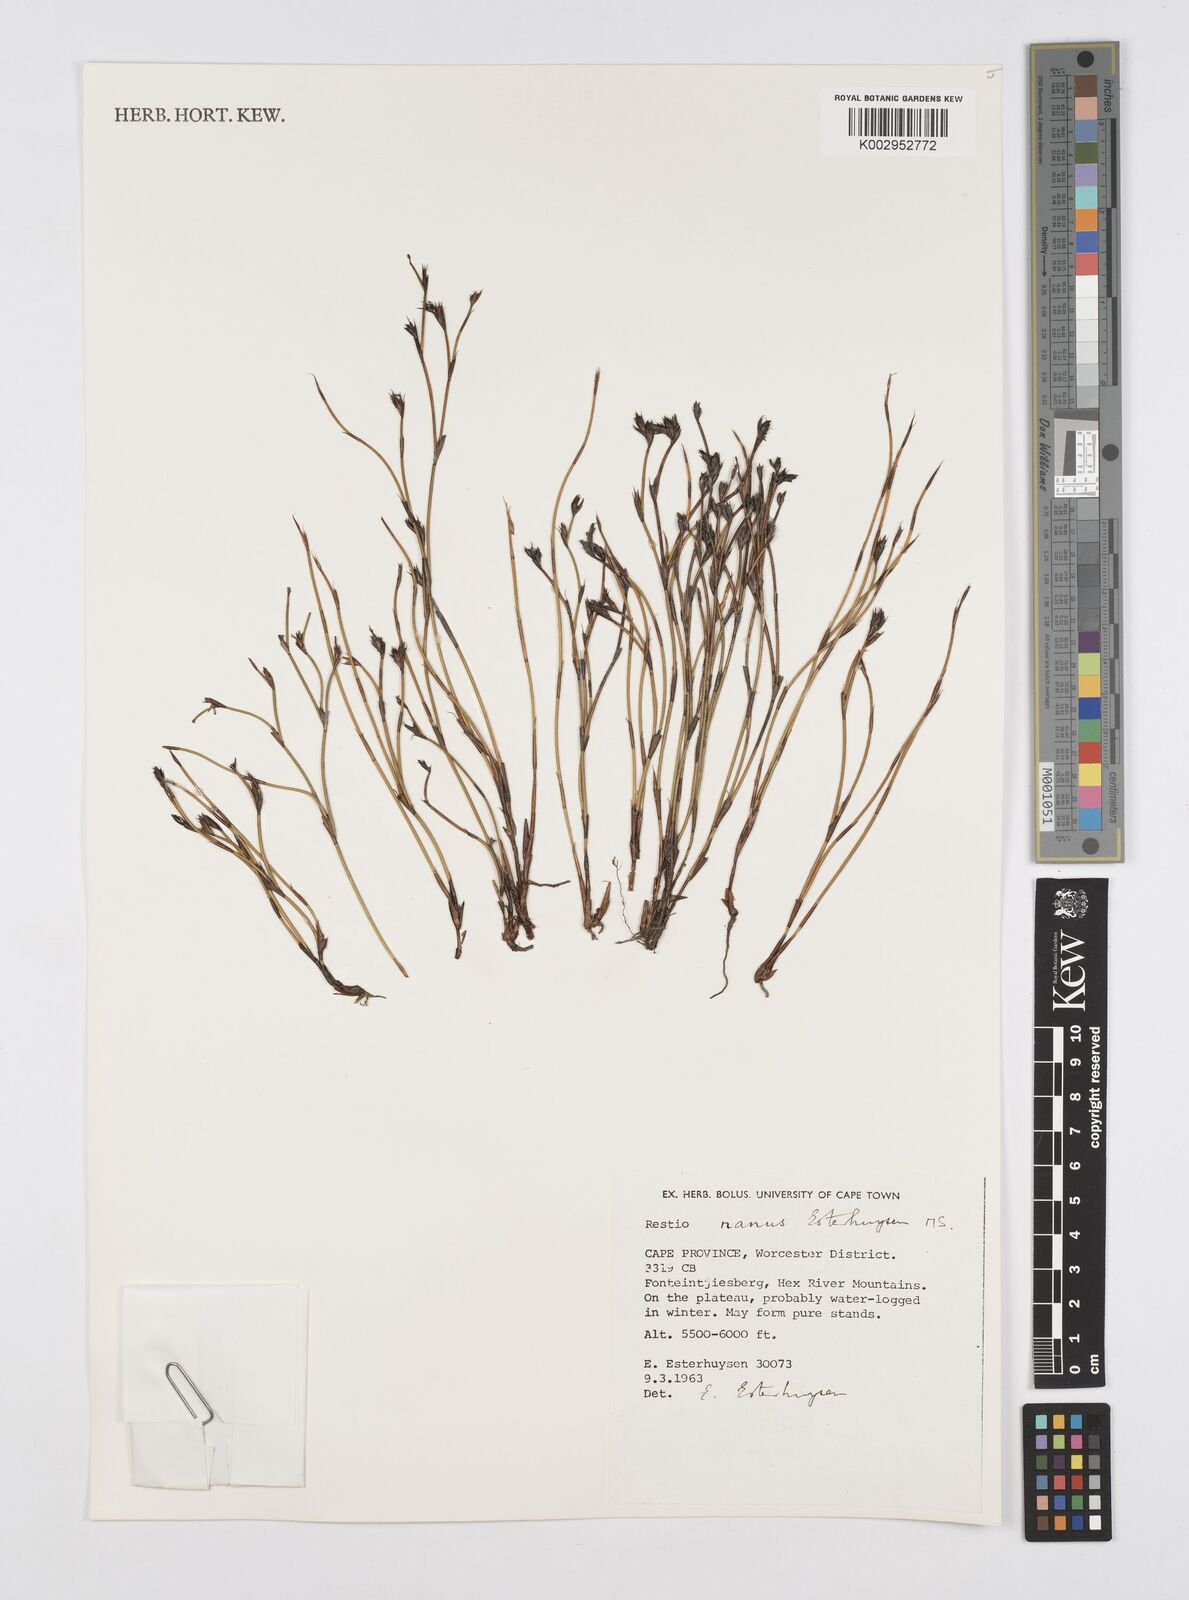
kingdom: Plantae
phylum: Tracheophyta
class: Liliopsida
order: Poales
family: Restionaceae
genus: Restio
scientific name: Restio nanus
